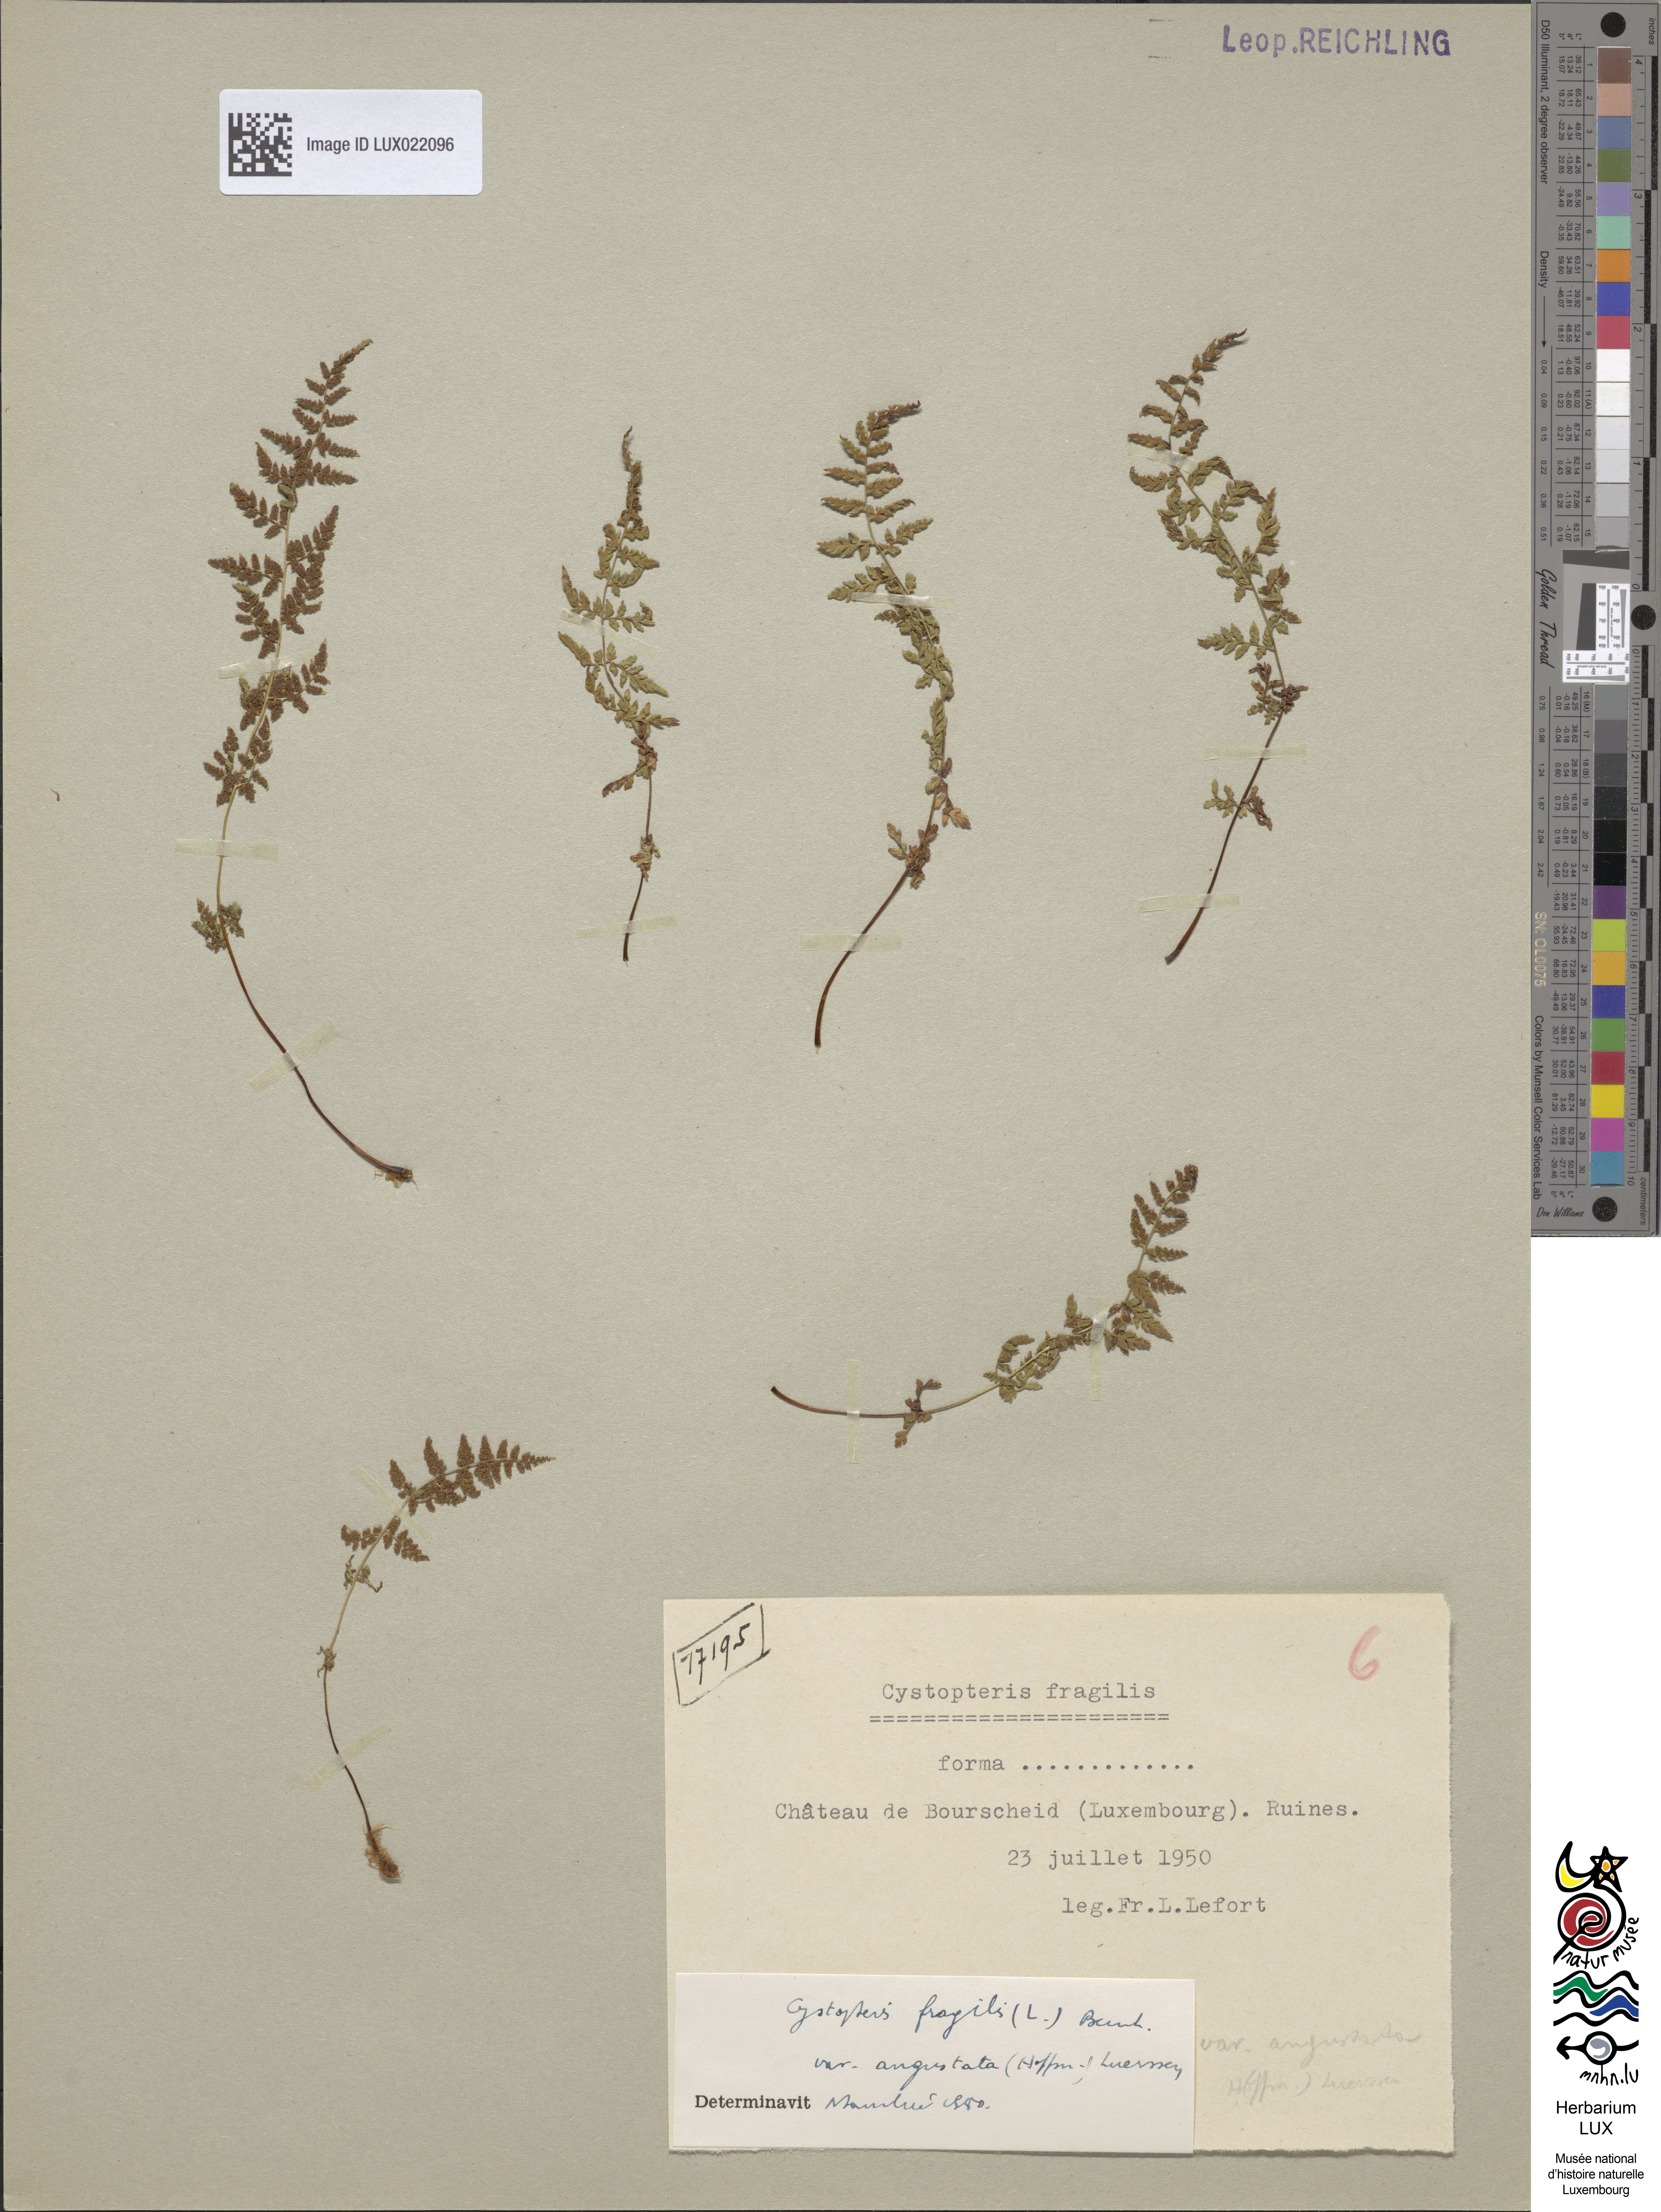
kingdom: Plantae
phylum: Tracheophyta
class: Polypodiopsida
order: Polypodiales
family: Cystopteridaceae
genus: Cystopteris
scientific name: Cystopteris fragilis
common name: Brittle bladder fern
